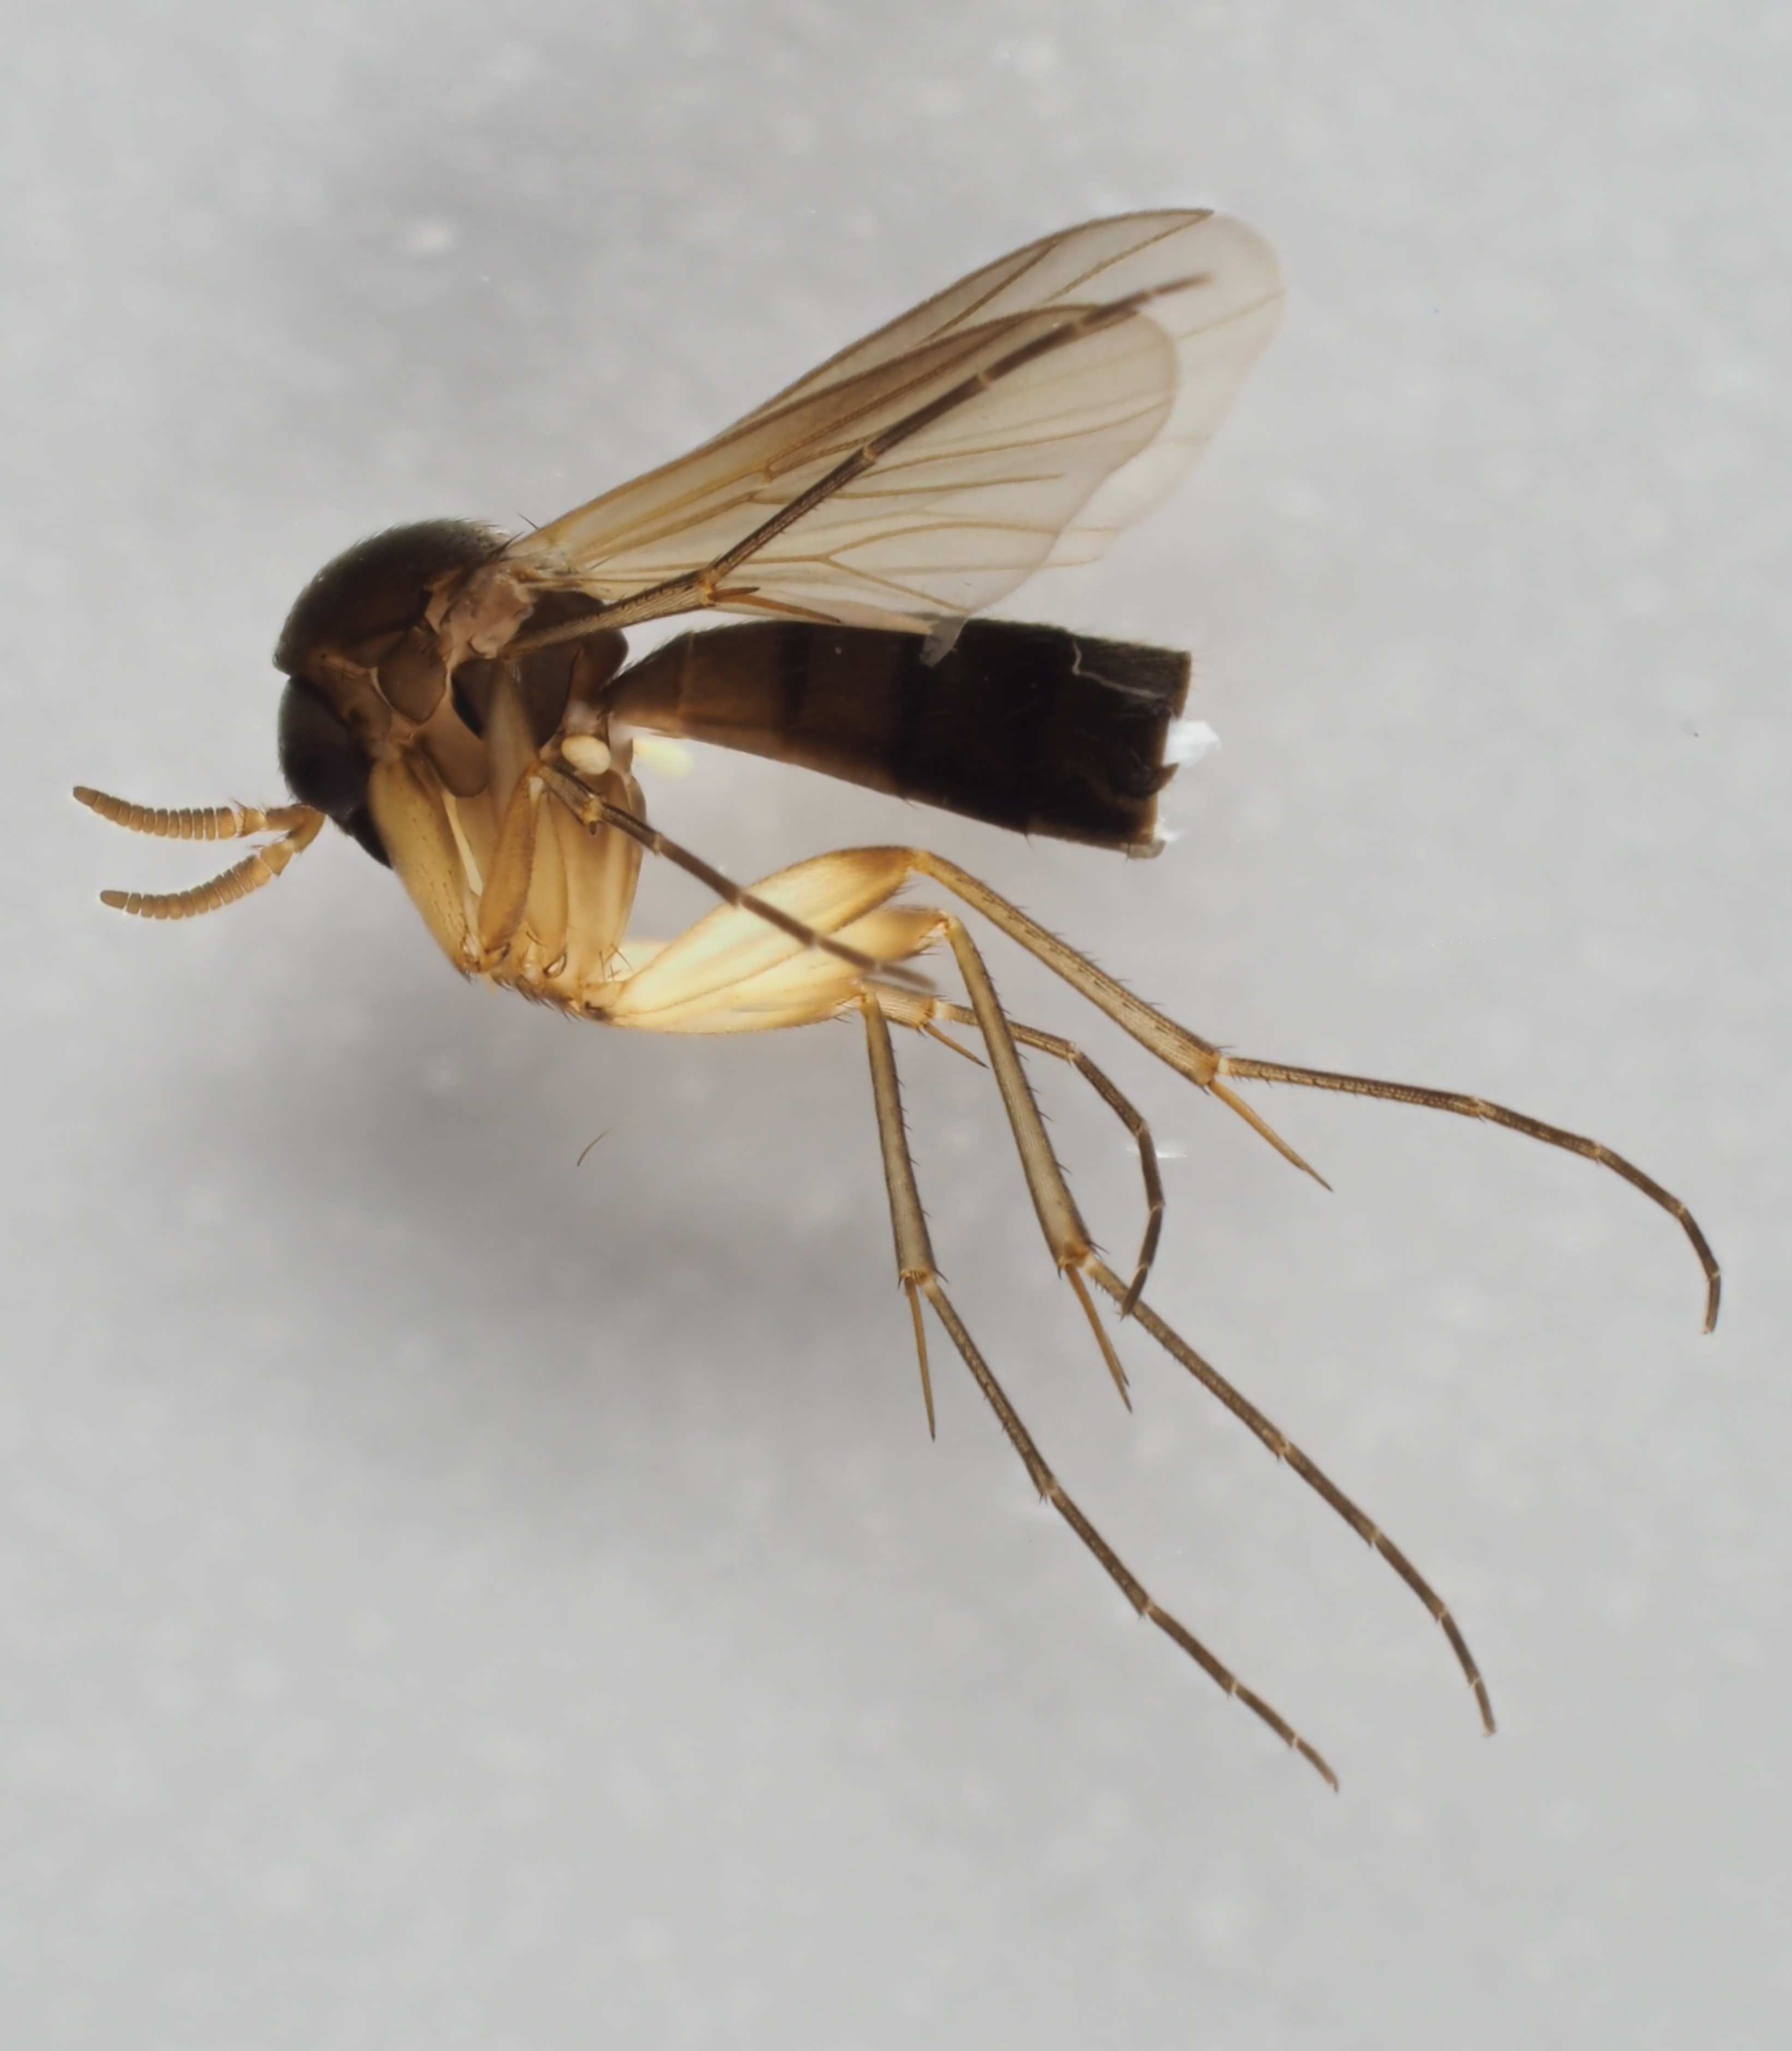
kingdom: Animalia
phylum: Arthropoda
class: Insecta
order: Diptera
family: Mycetophilidae
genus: Cordyla
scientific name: Cordyla semiflava
